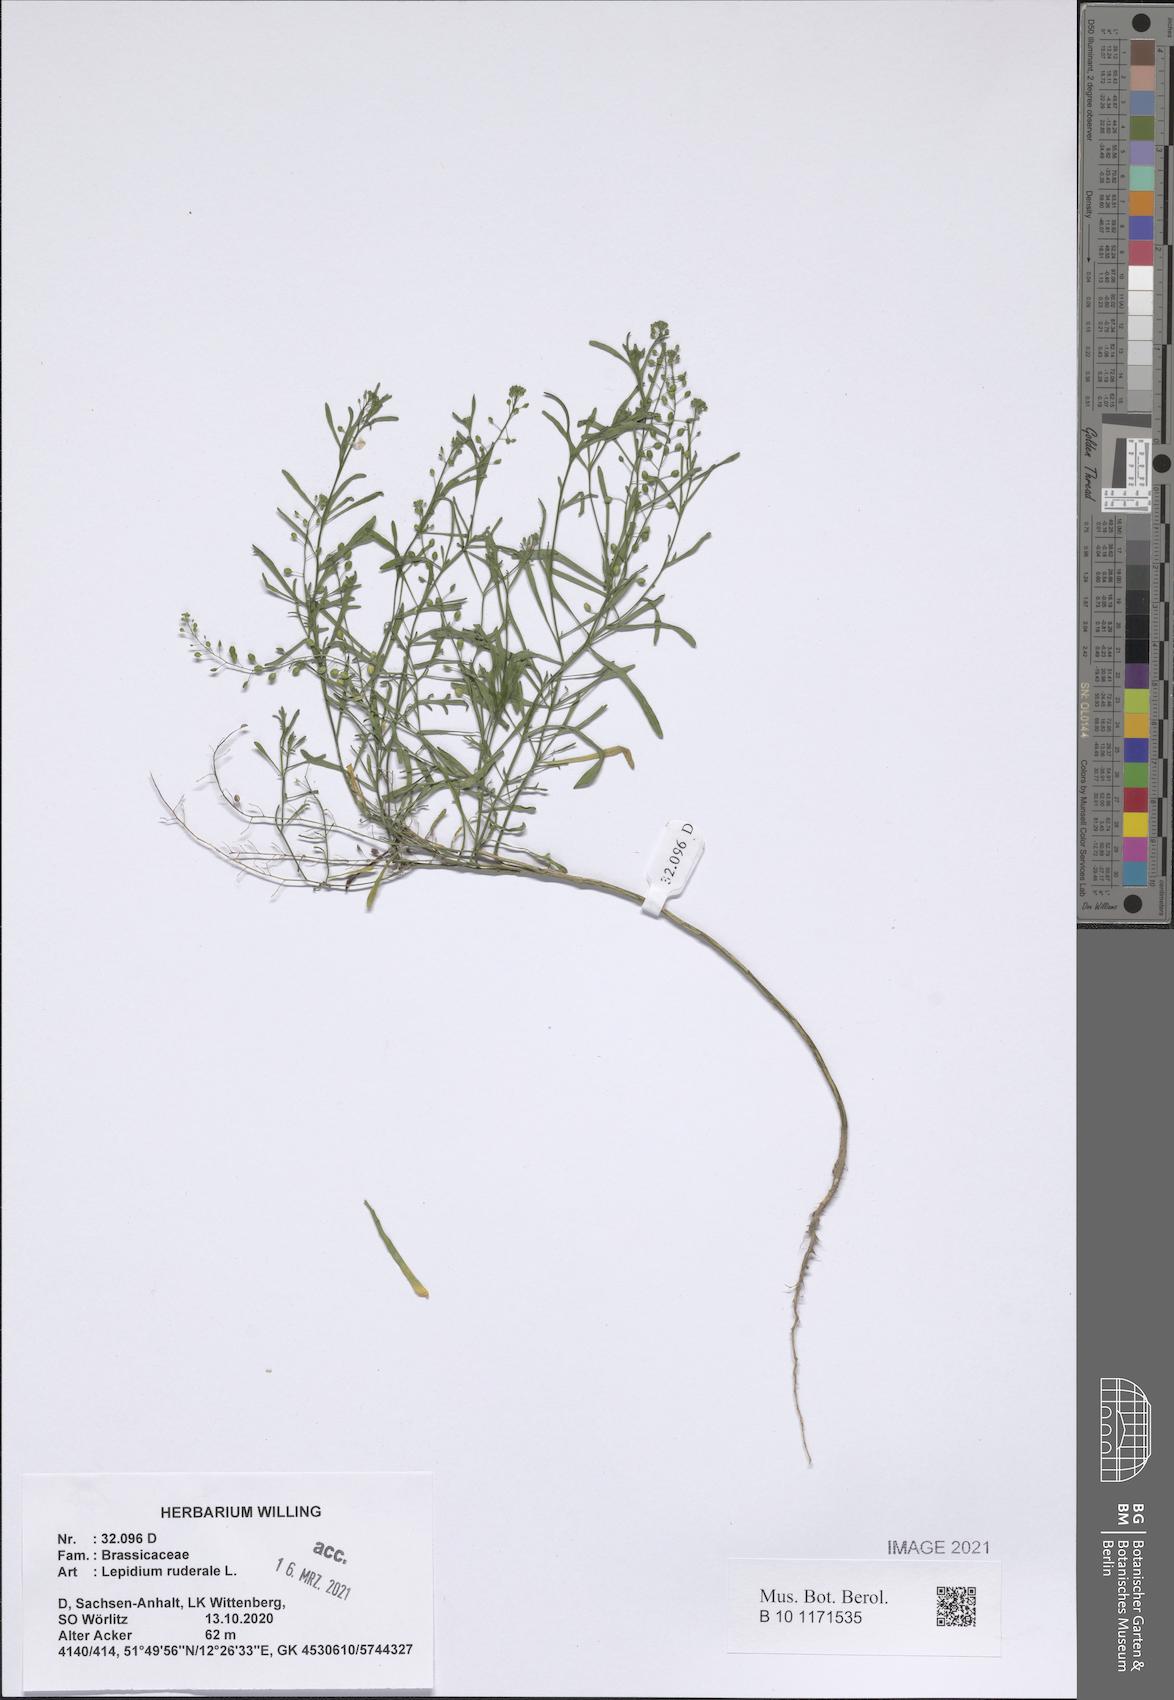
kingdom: Plantae
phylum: Tracheophyta
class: Magnoliopsida
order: Brassicales
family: Brassicaceae
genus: Lepidium
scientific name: Lepidium ruderale
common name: Narrow-leaved pepperwort
